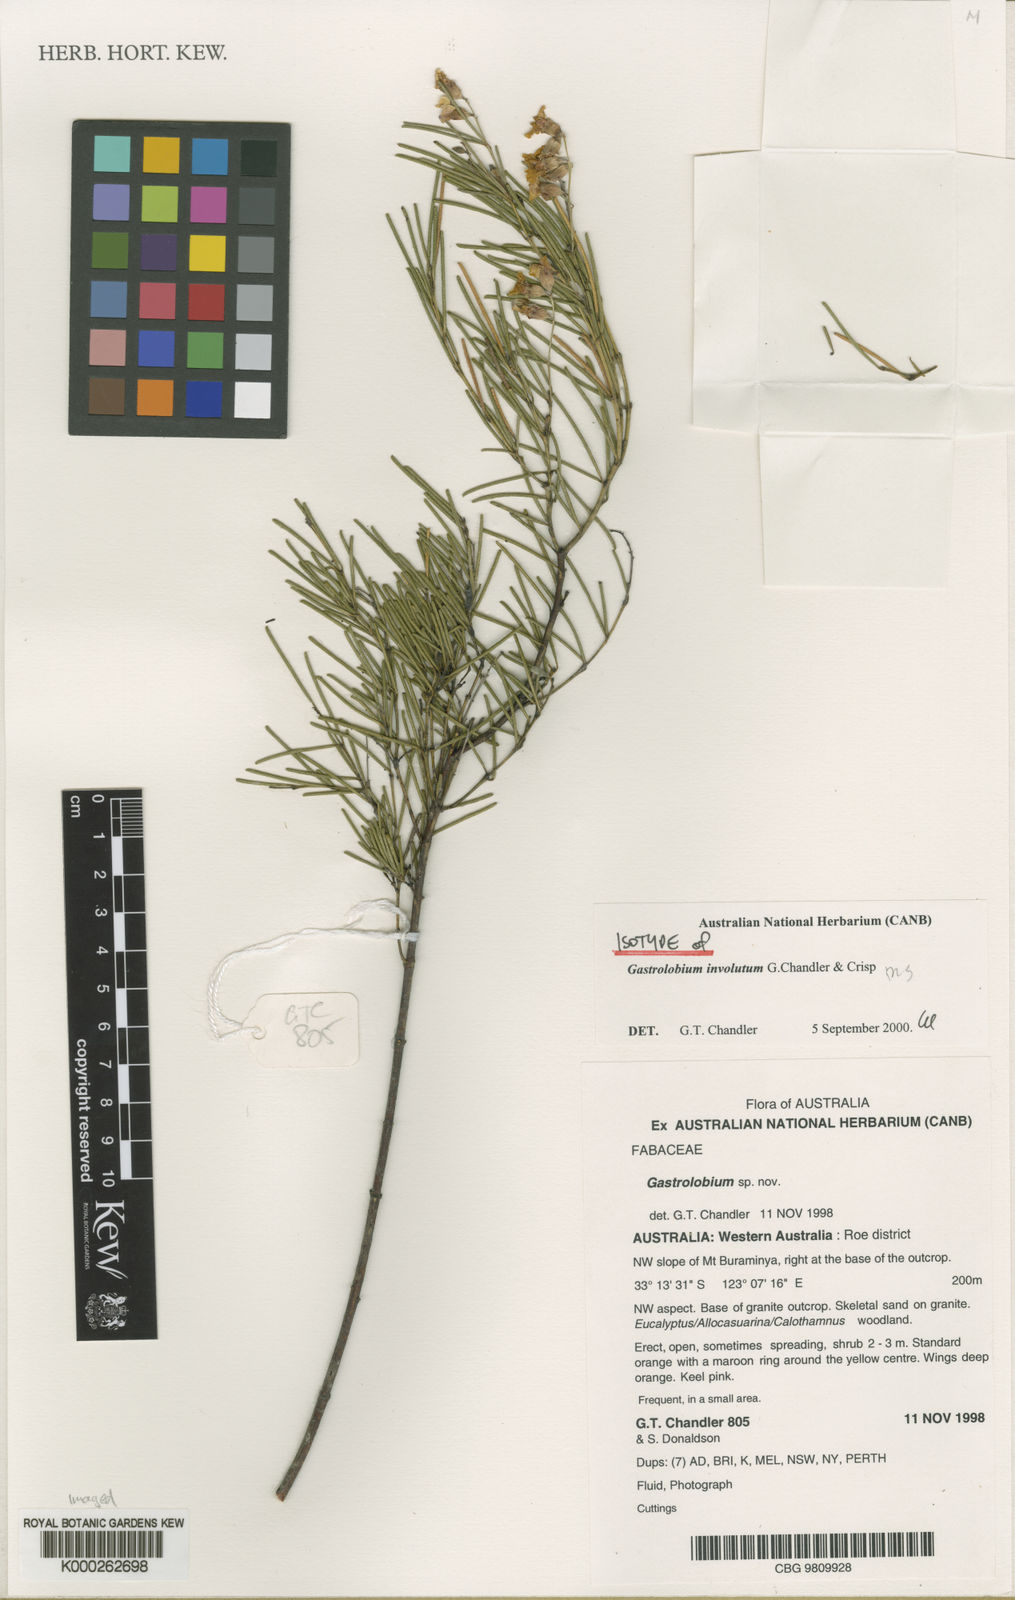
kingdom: Plantae
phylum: Tracheophyta
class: Magnoliopsida
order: Fabales
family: Fabaceae
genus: Gastrolobium
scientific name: Gastrolobium involutum
